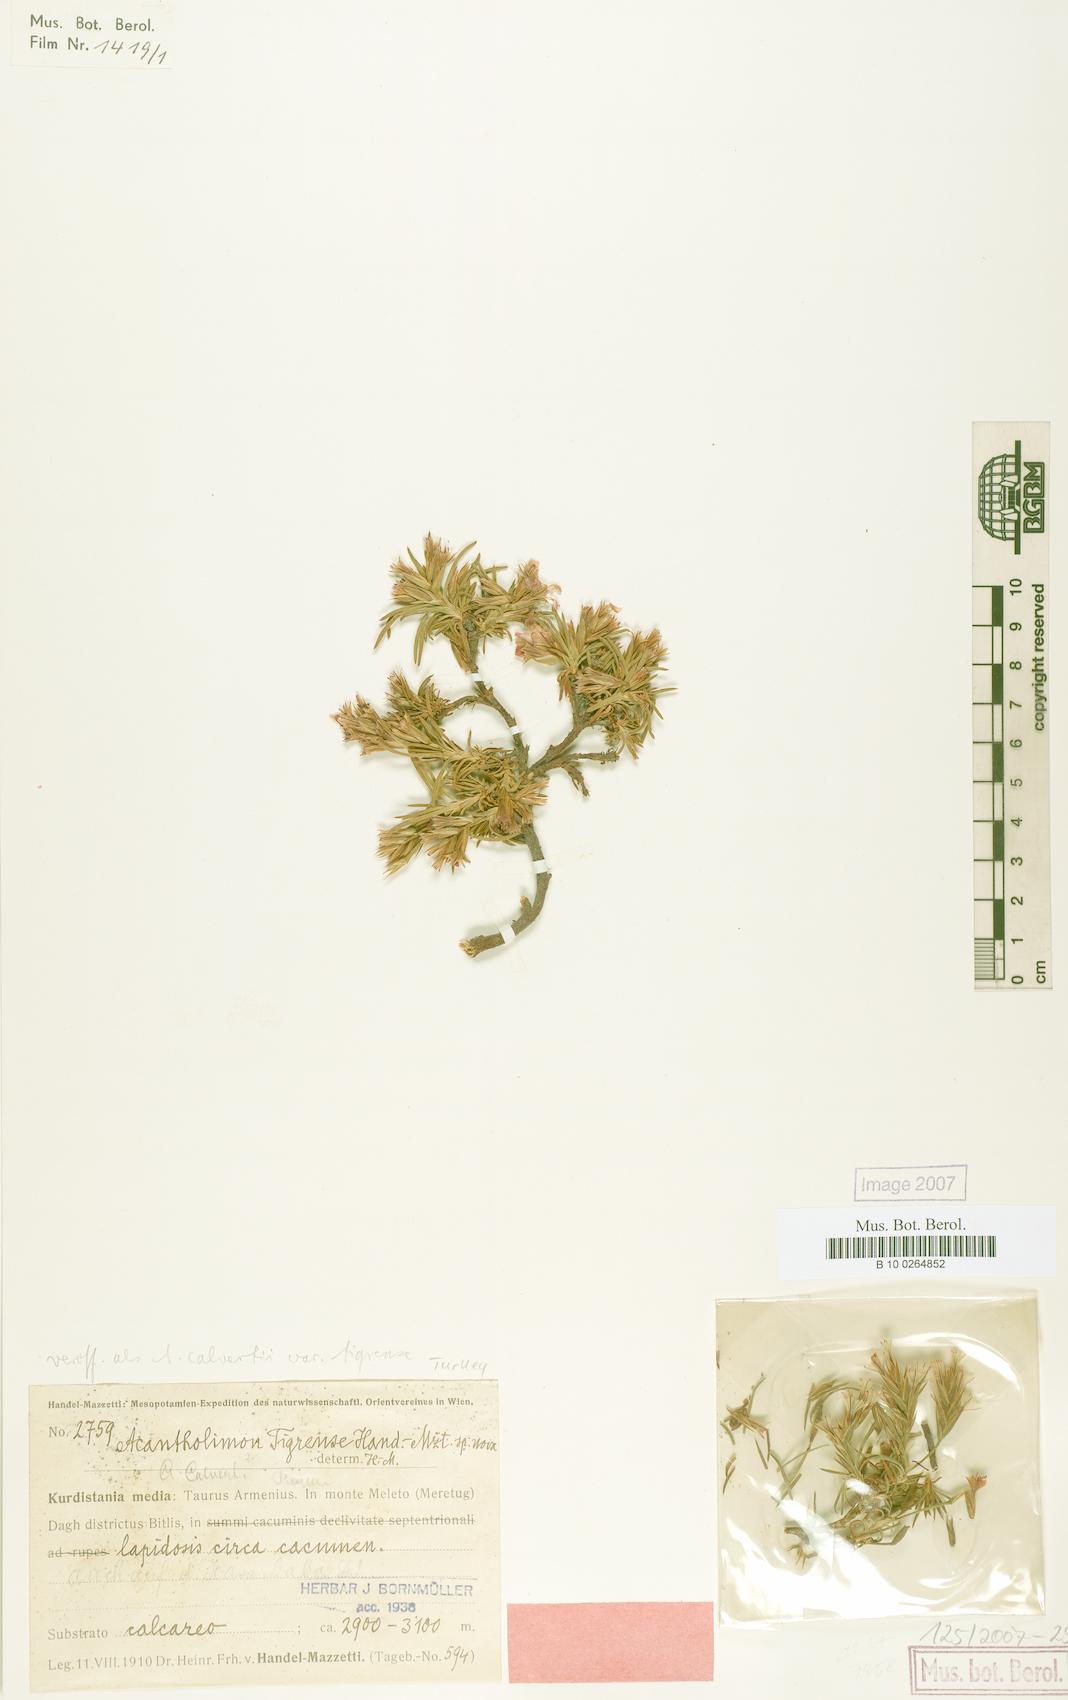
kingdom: Plantae
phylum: Tracheophyta
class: Magnoliopsida
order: Caryophyllales
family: Plumbaginaceae
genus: Acantholimon
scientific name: Acantholimon calvertii
